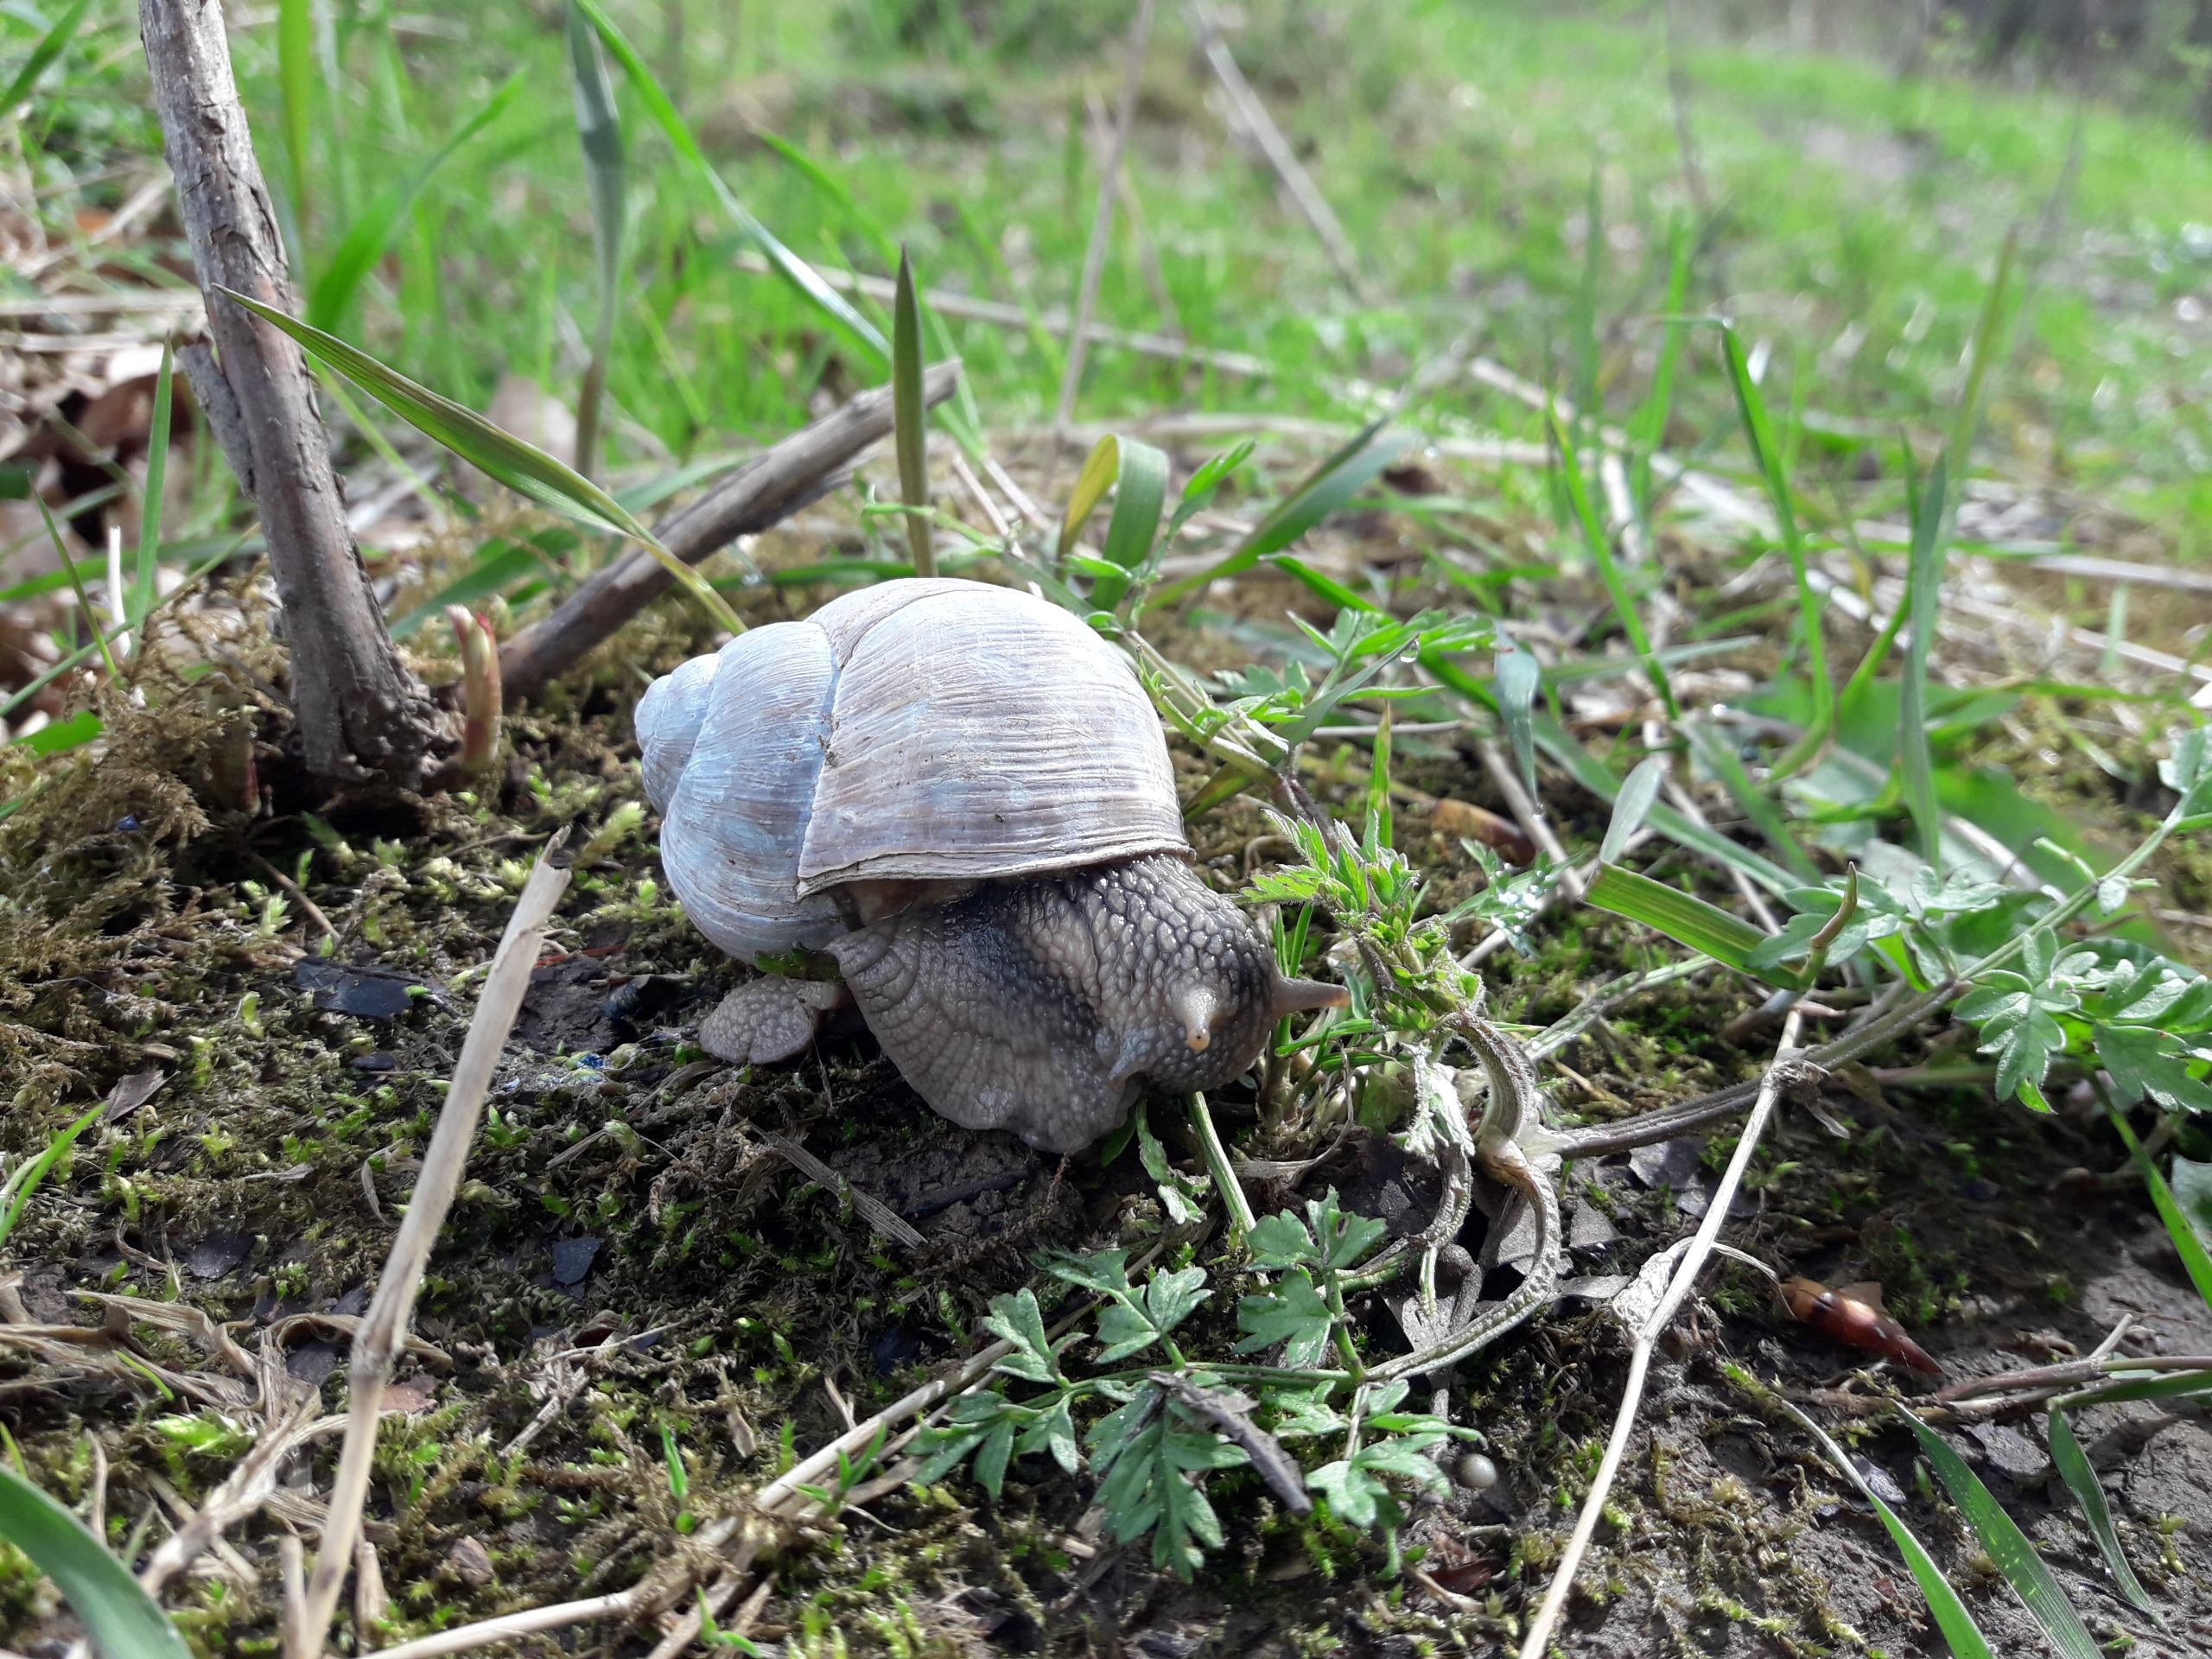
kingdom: Animalia
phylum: Mollusca
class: Gastropoda
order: Stylommatophora
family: Helicidae
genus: Helix
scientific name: Helix pomatia
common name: Vinbjergsnegl
